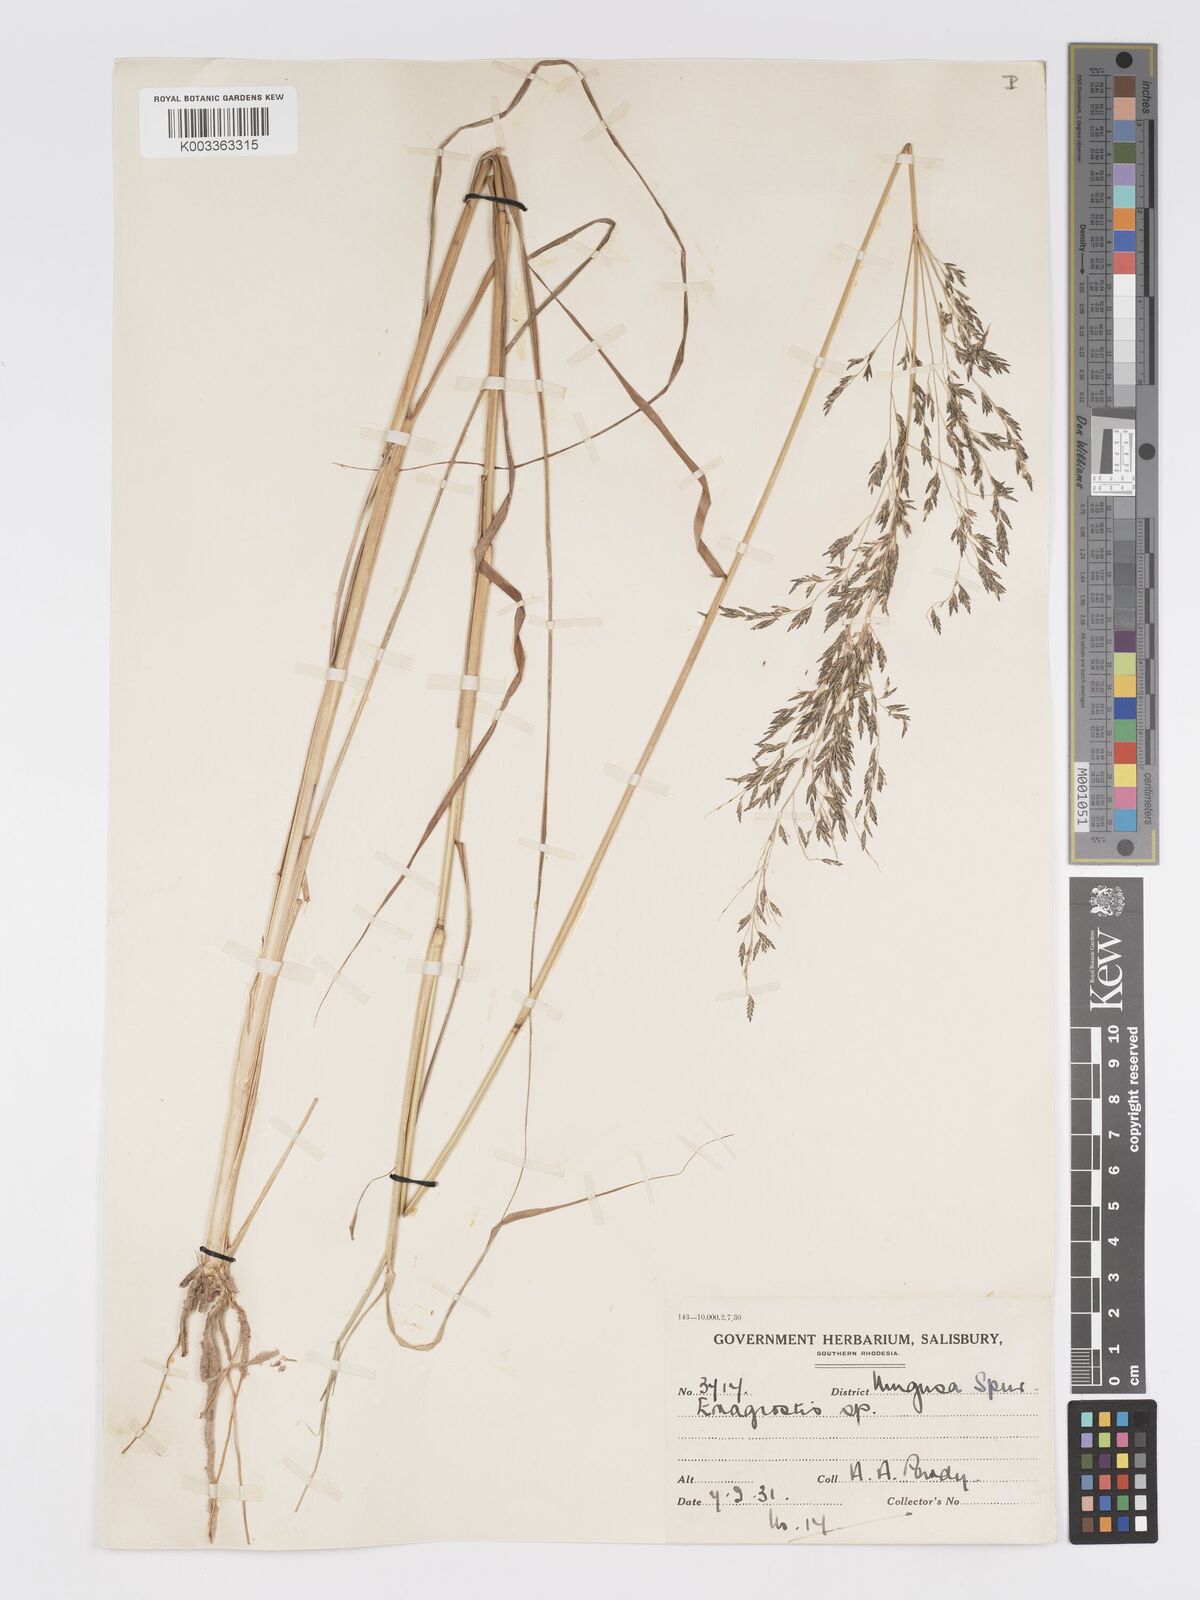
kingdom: Plantae
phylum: Tracheophyta
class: Liliopsida
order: Poales
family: Poaceae
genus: Eragrostis
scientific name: Eragrostis curvula
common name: African love-grass
